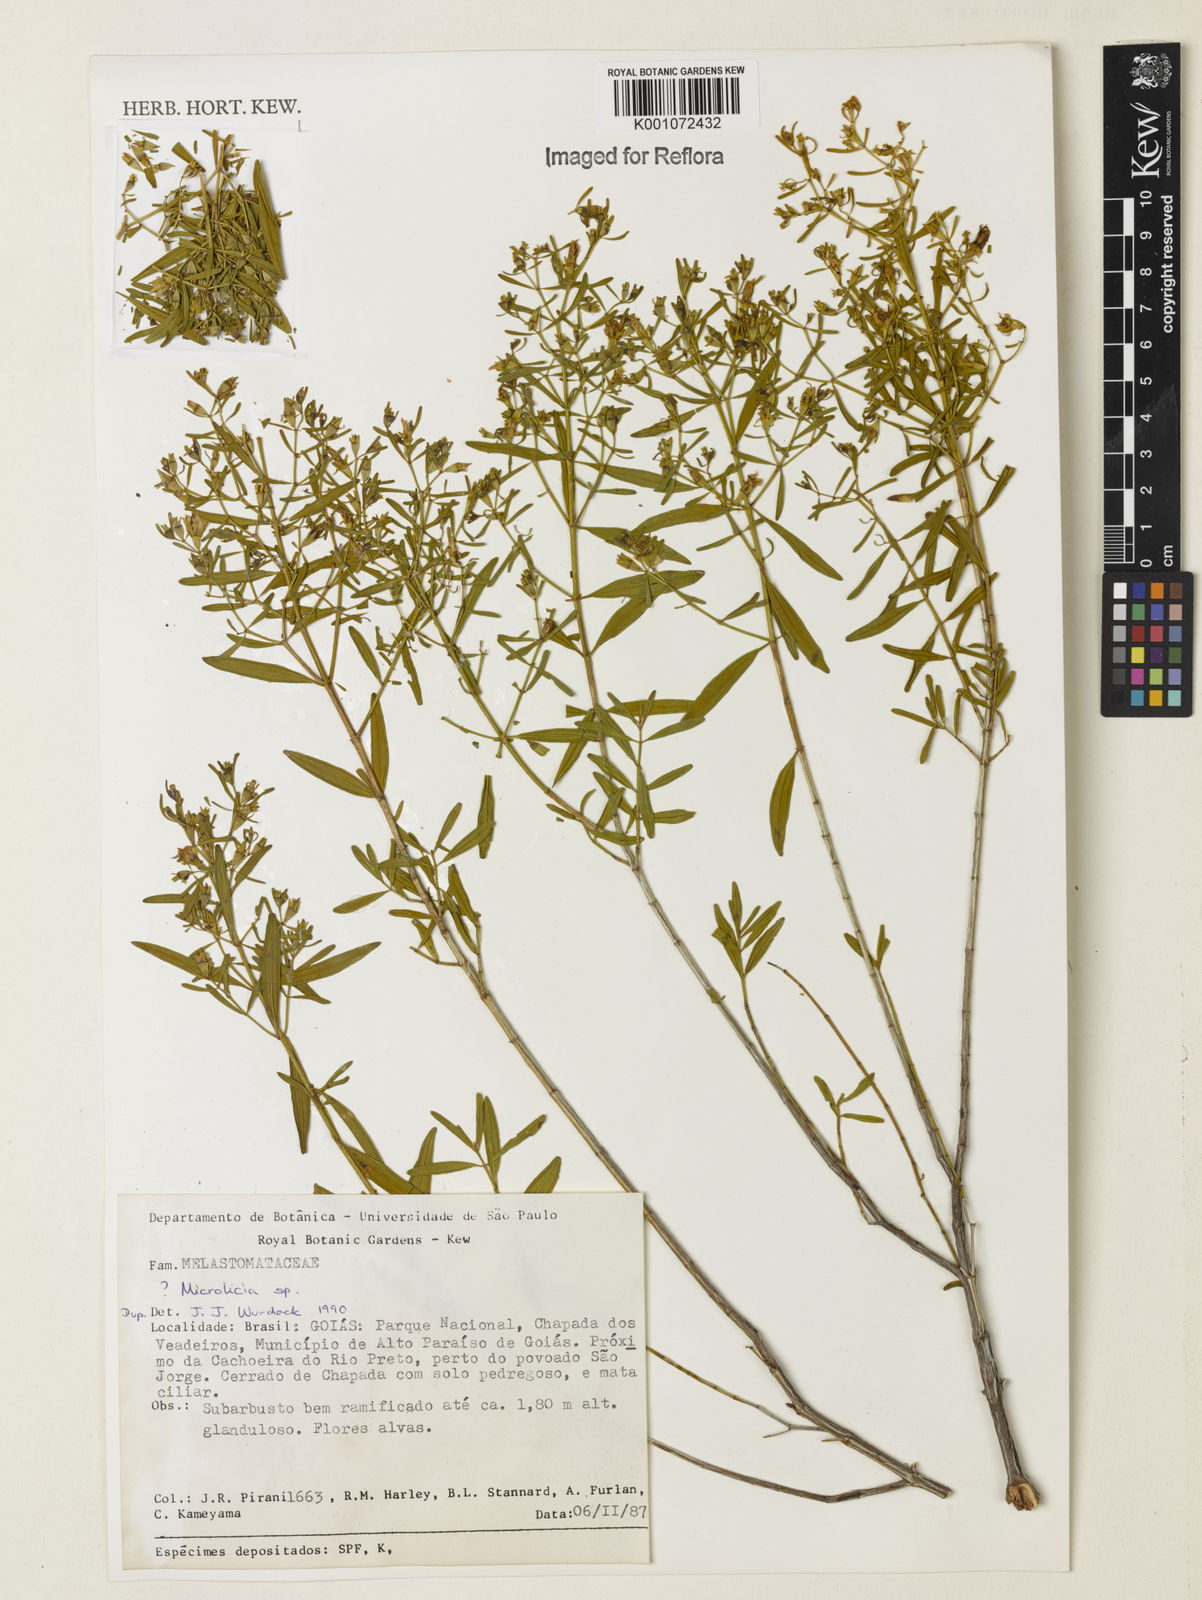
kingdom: Plantae
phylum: Tracheophyta
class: Magnoliopsida
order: Myrtales
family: Melastomataceae
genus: Microlicia
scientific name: Microlicia
